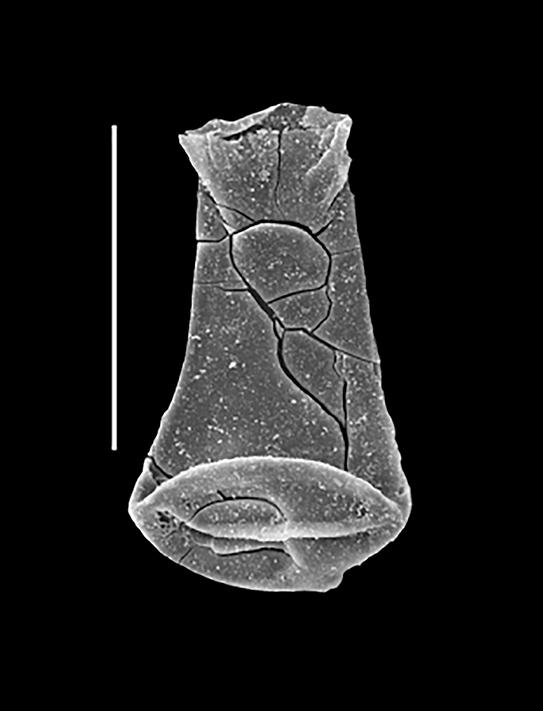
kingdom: Animalia
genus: Euconochitina
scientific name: Euconochitina
